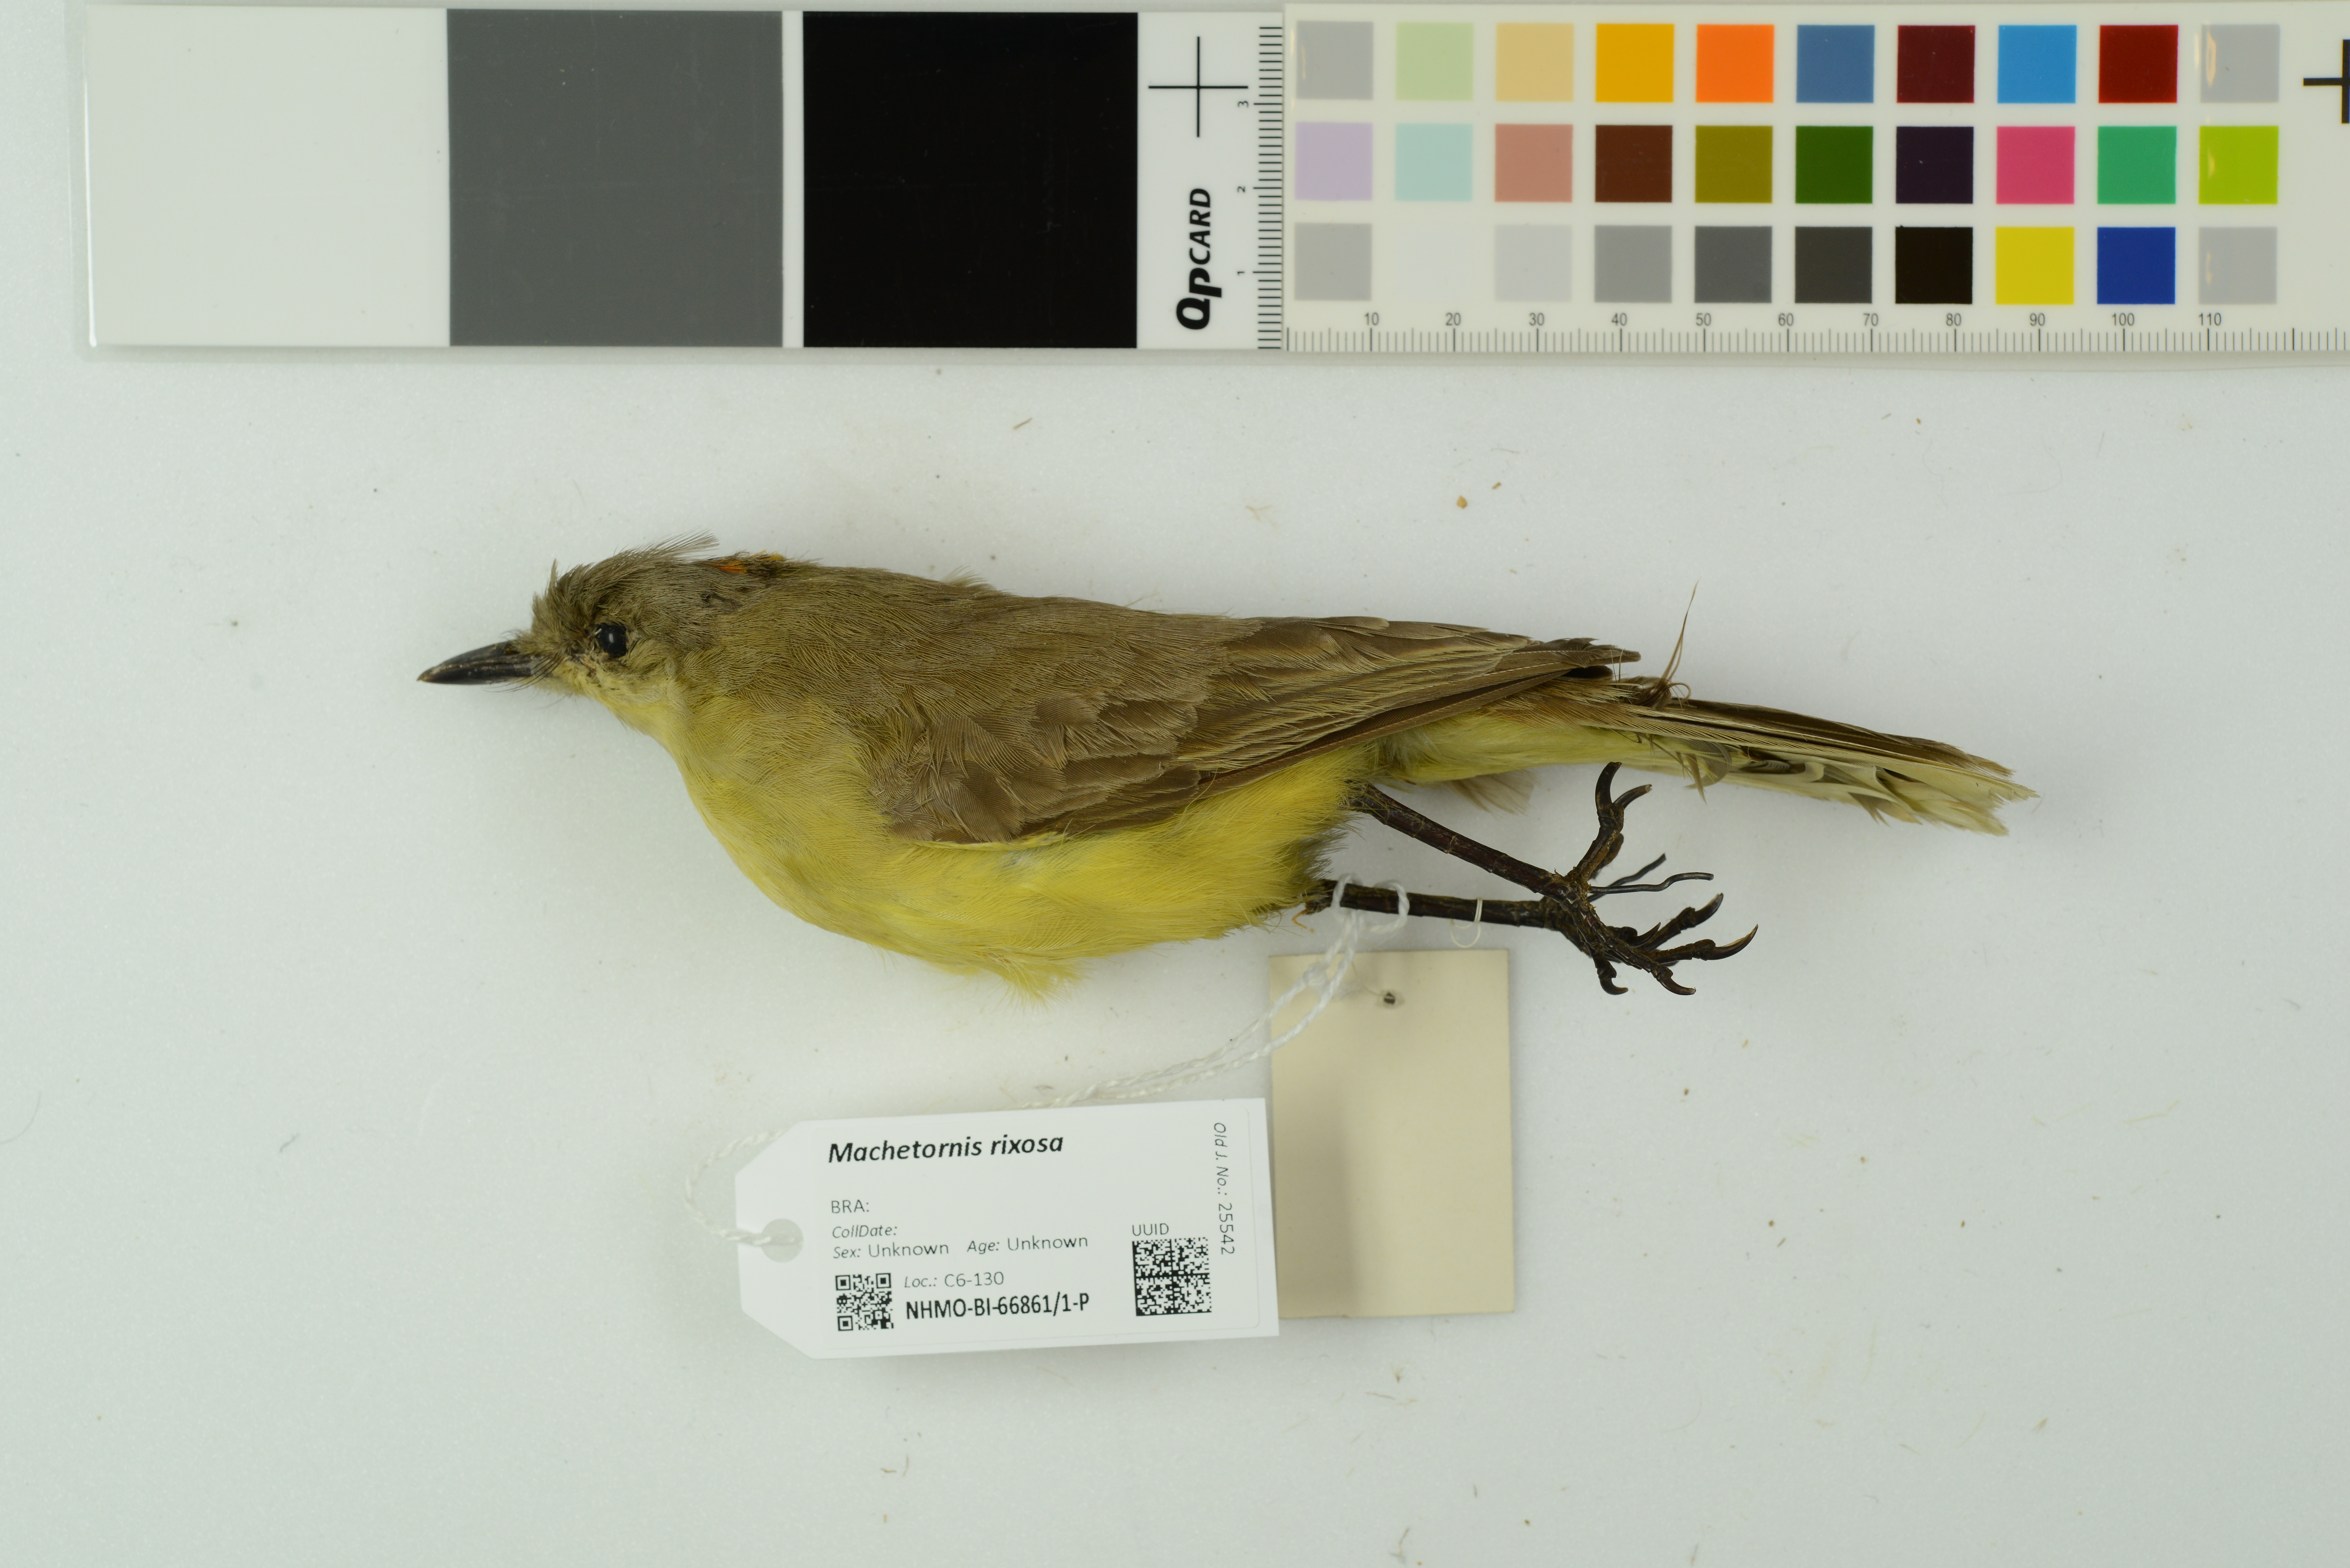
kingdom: Animalia
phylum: Chordata
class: Aves
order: Passeriformes
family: Tyrannidae
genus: Machetornis
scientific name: Machetornis rixosa
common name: Cattle tyrant
